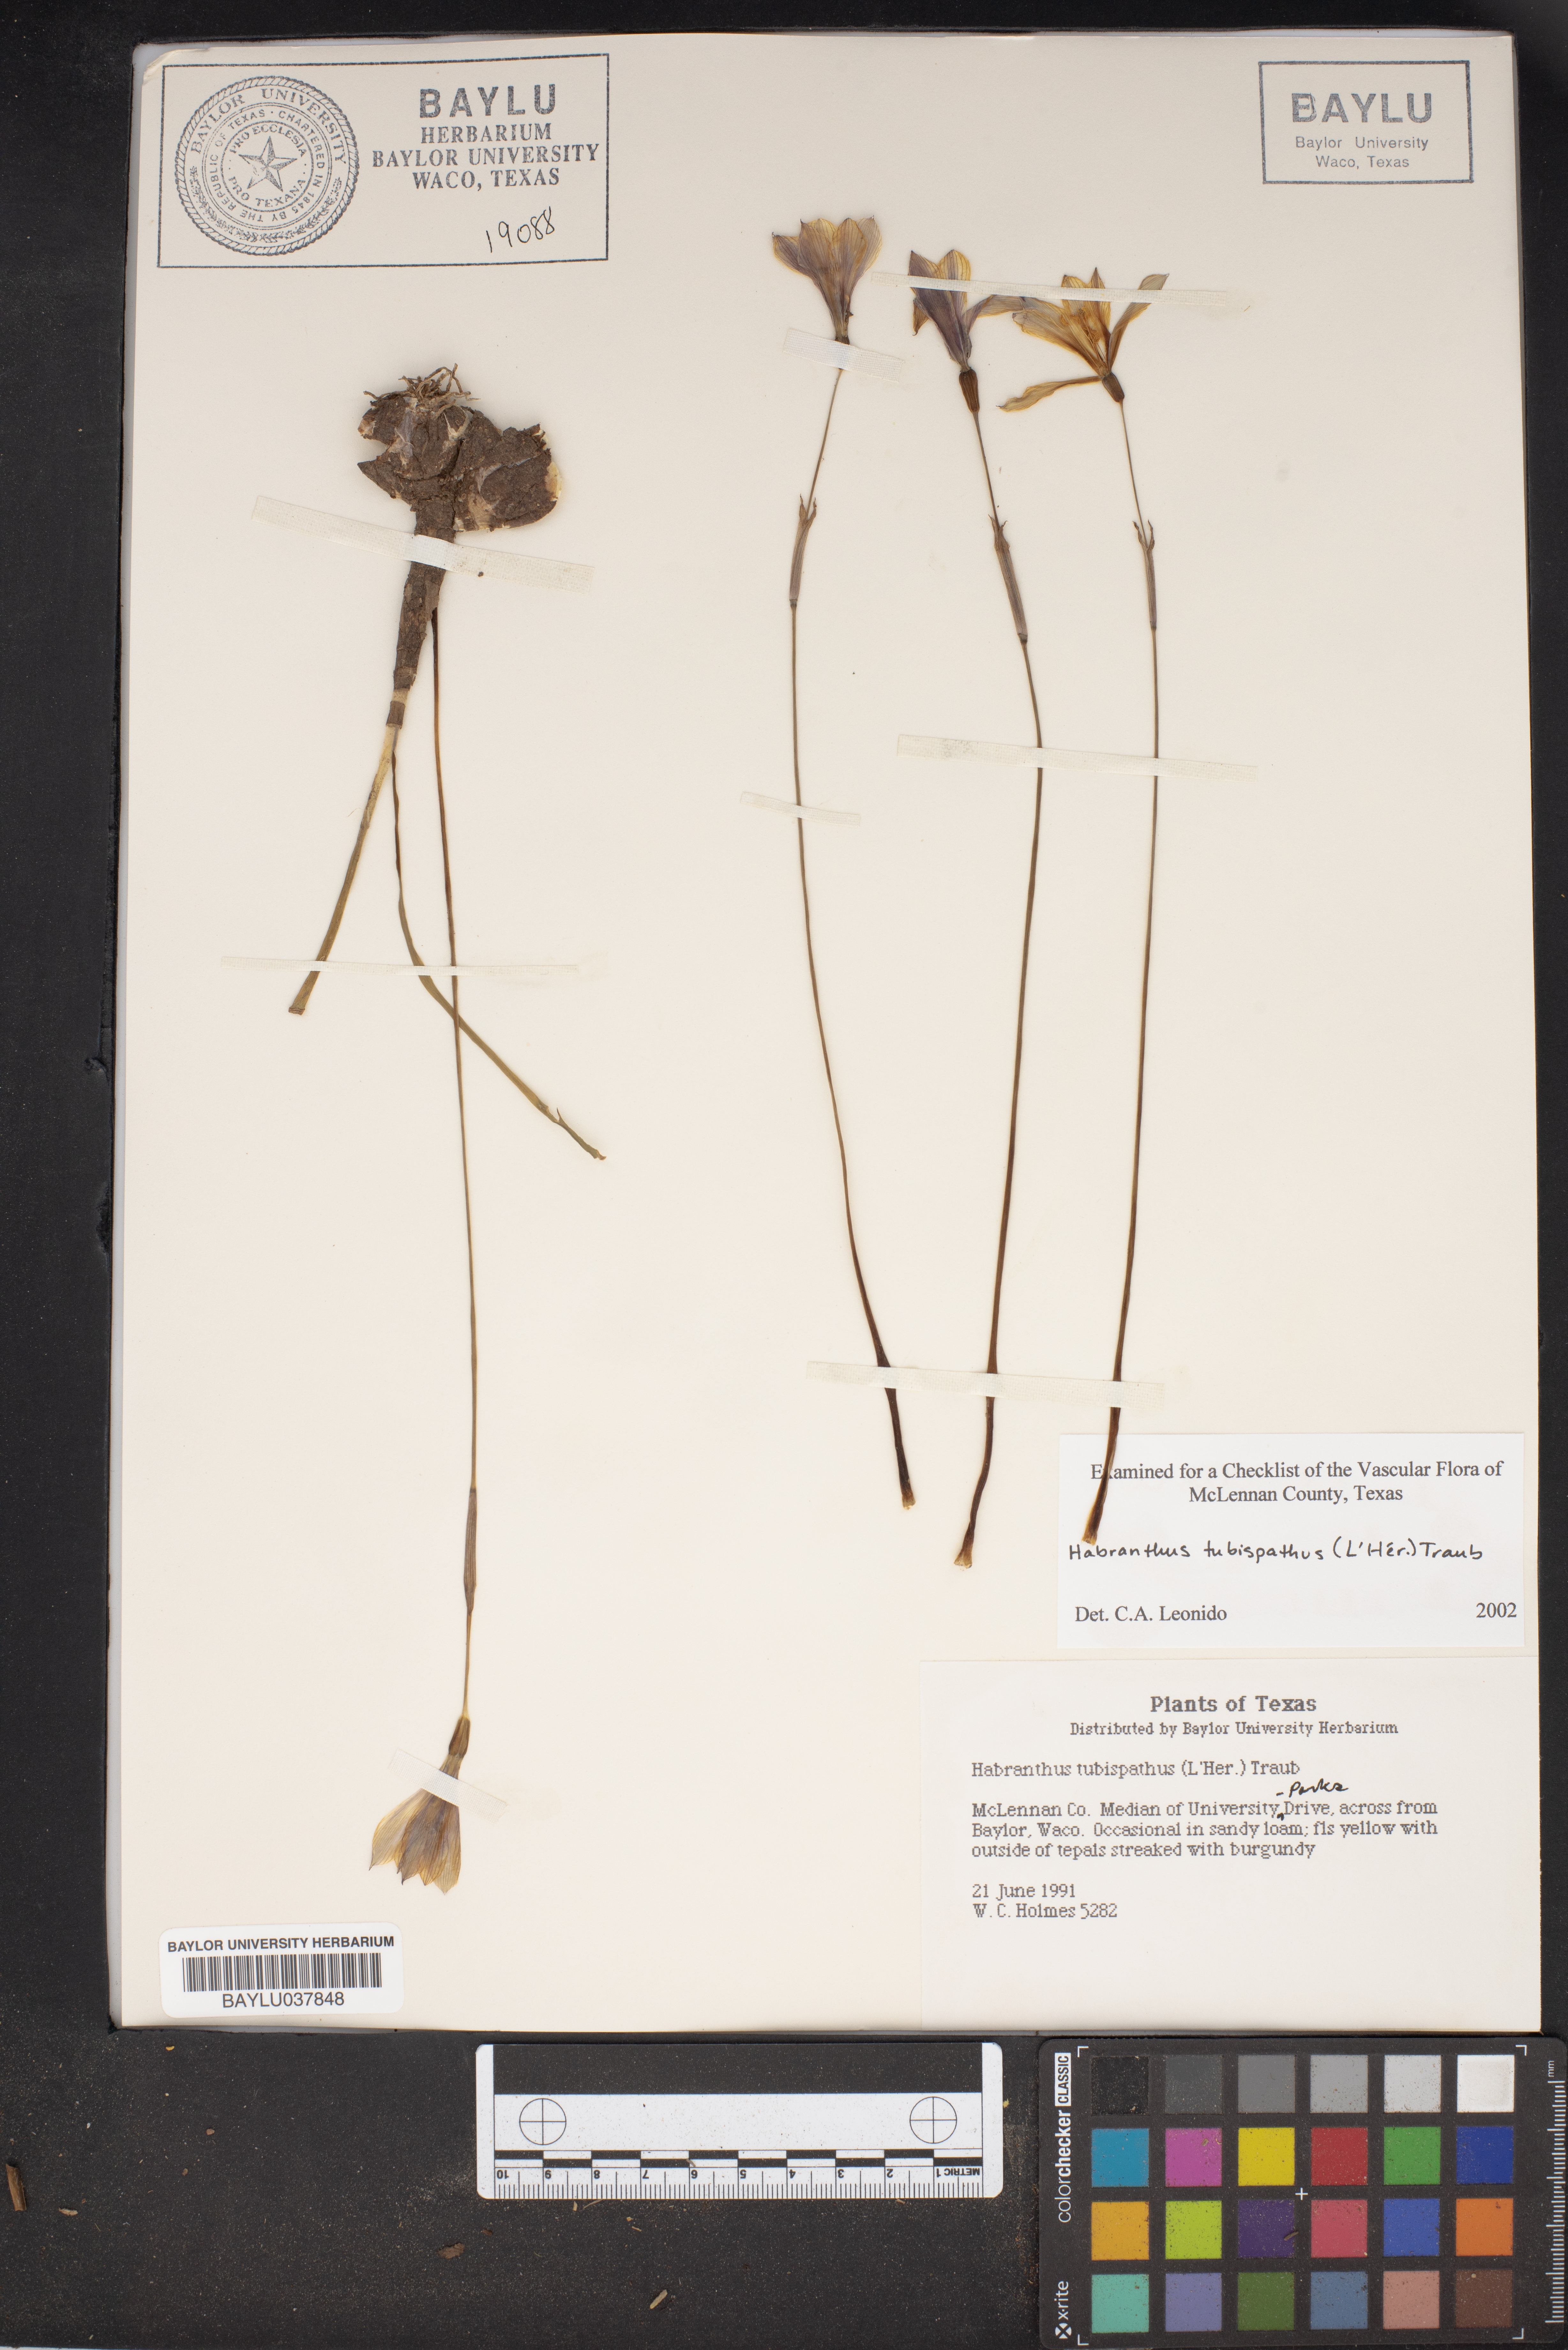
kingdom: Plantae
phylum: Tracheophyta
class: Liliopsida
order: Asparagales
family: Amaryllidaceae
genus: Zephyranthes
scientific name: Zephyranthes tubispatha
